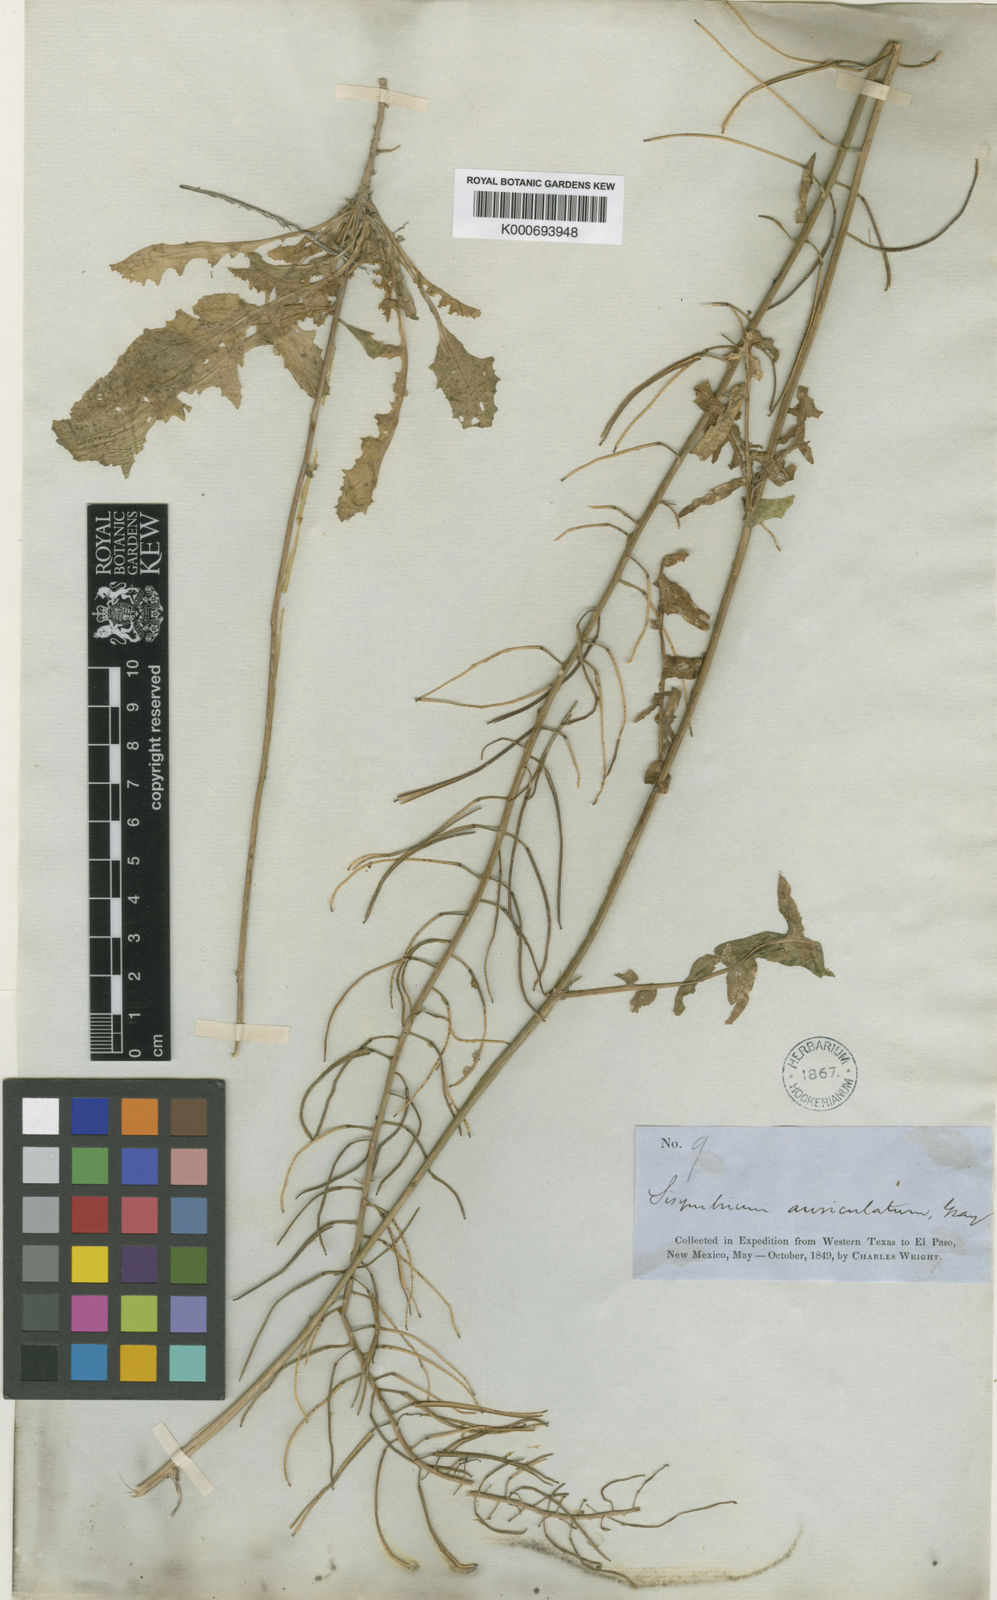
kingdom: Plantae
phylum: Tracheophyta
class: Magnoliopsida
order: Brassicales
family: Brassicaceae
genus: Dryopetalon
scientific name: Dryopetalon auriculatum
